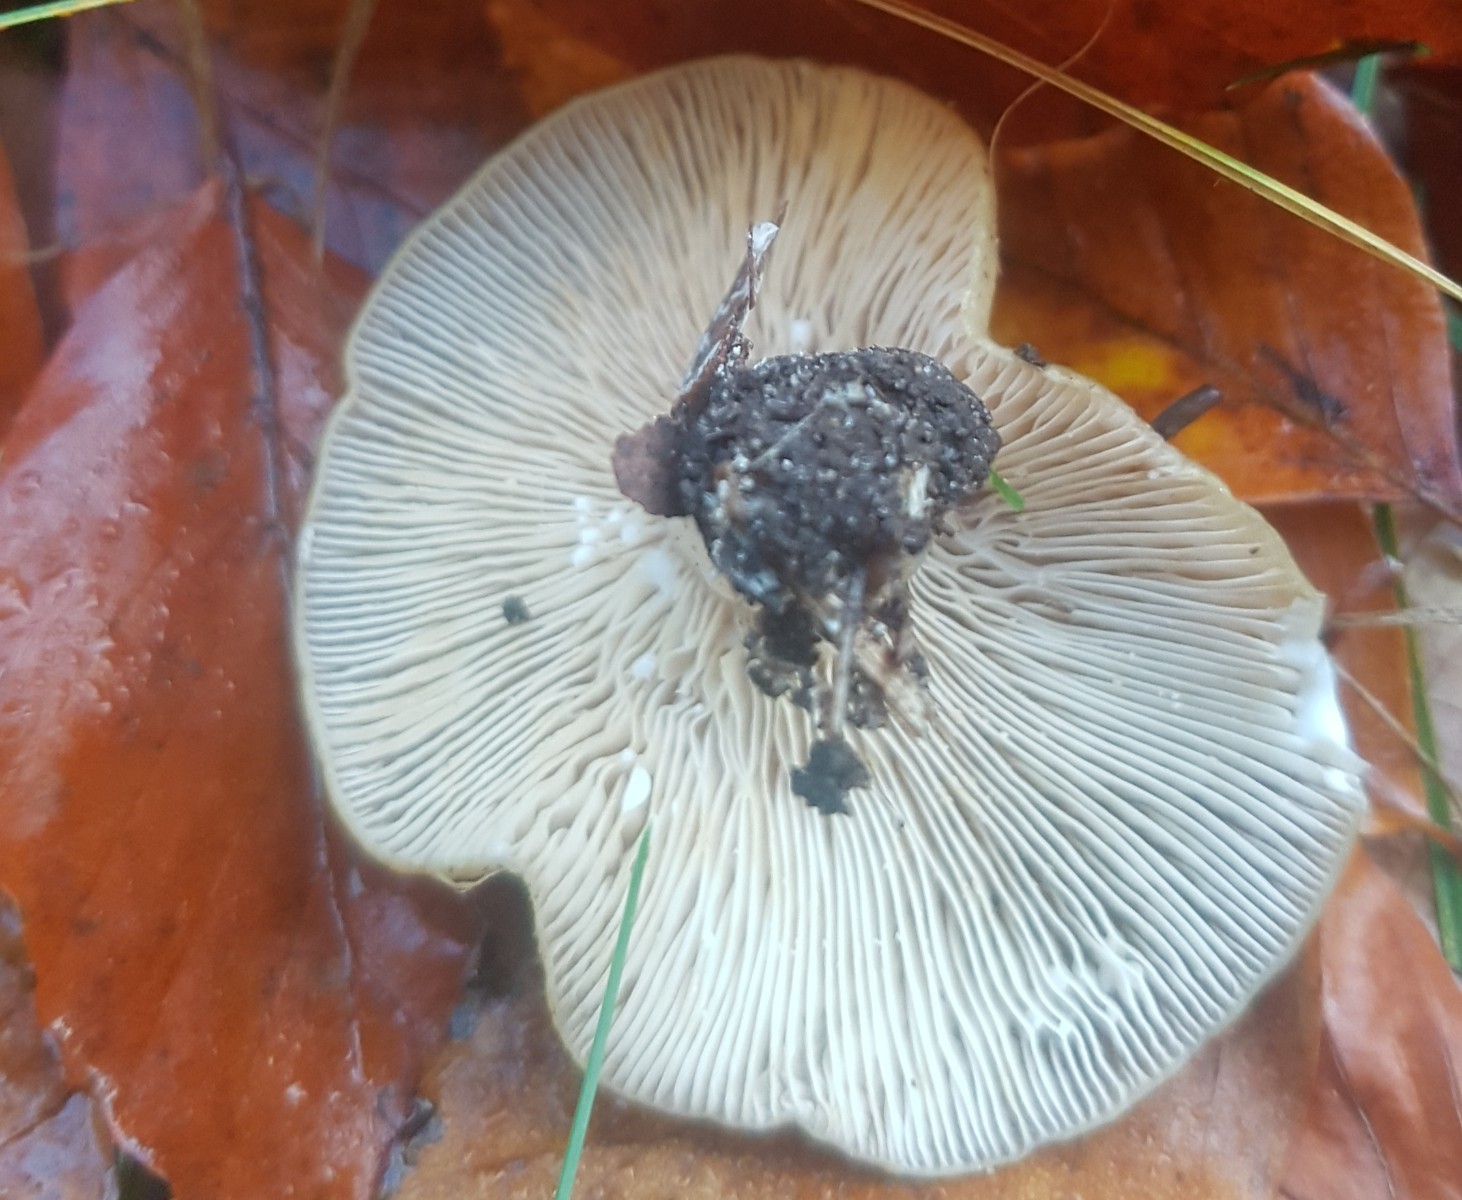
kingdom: Fungi
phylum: Basidiomycota
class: Agaricomycetes
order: Russulales
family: Russulaceae
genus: Lactarius
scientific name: Lactarius blennius
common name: dråbeplettet mælkehat
